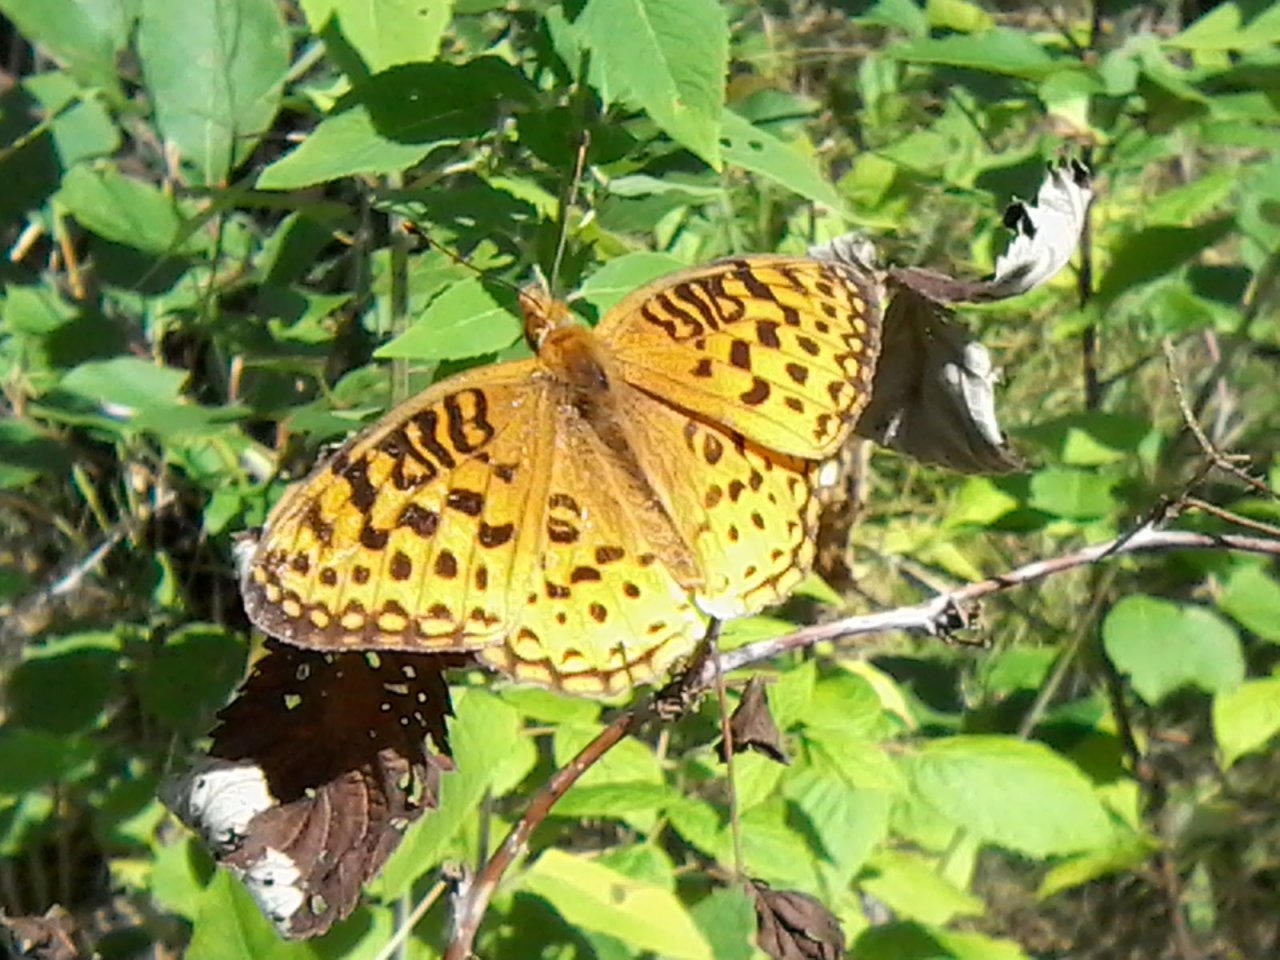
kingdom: Animalia
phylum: Arthropoda
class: Insecta
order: Lepidoptera
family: Nymphalidae
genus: Speyeria
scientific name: Speyeria aphrodite
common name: Aphrodite Fritillary
